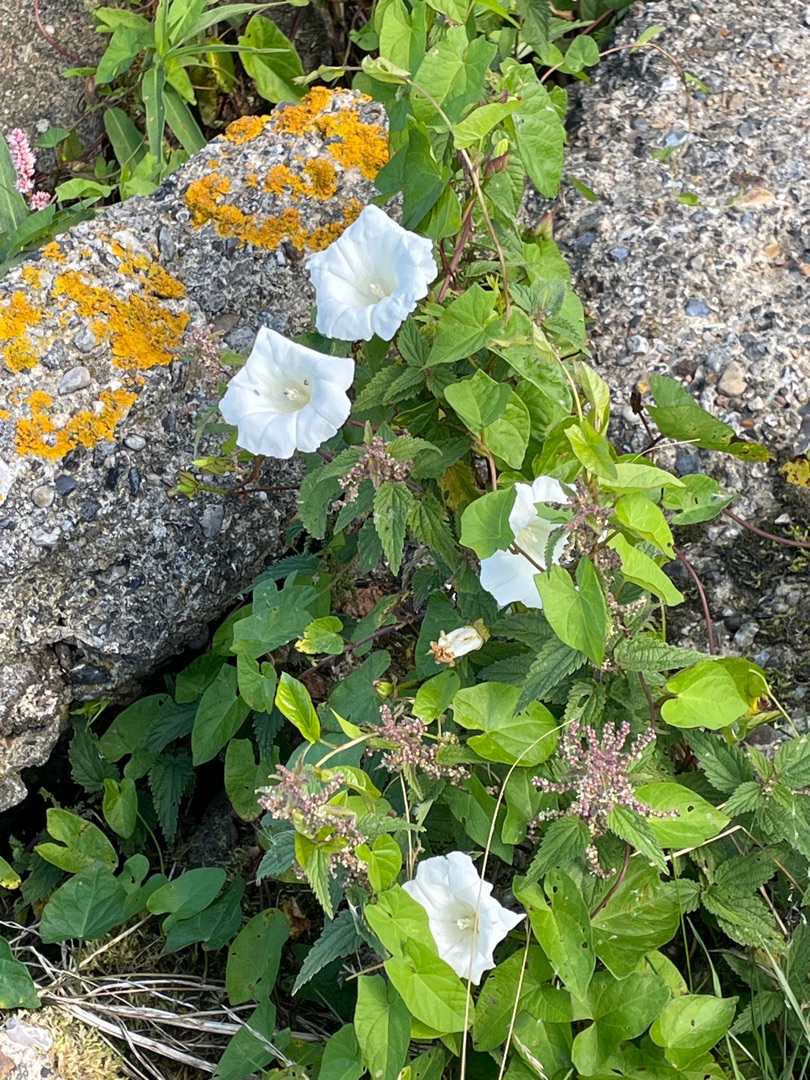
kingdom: Plantae
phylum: Tracheophyta
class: Magnoliopsida
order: Solanales
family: Convolvulaceae
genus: Calystegia
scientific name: Calystegia sepium
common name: Gærde-snerle
